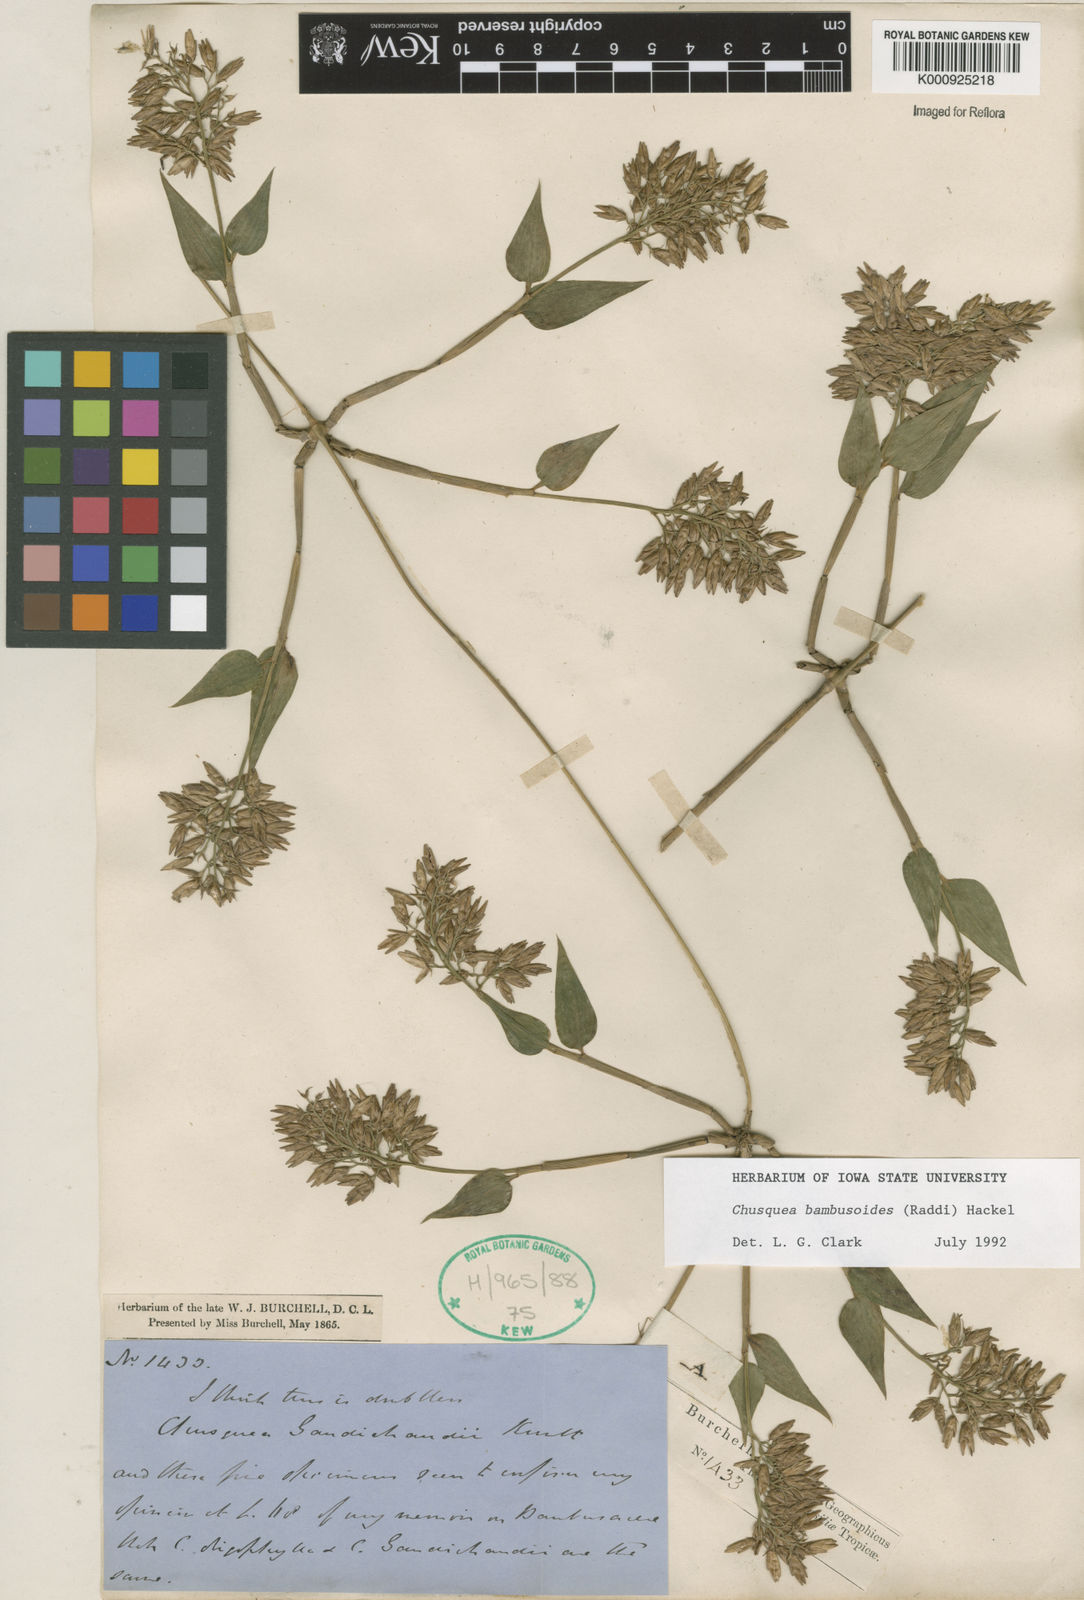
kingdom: Plantae
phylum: Tracheophyta
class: Liliopsida
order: Poales
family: Poaceae
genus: Chusquea
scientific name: Chusquea bambusoides
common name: Brazil scrambling bamboo
